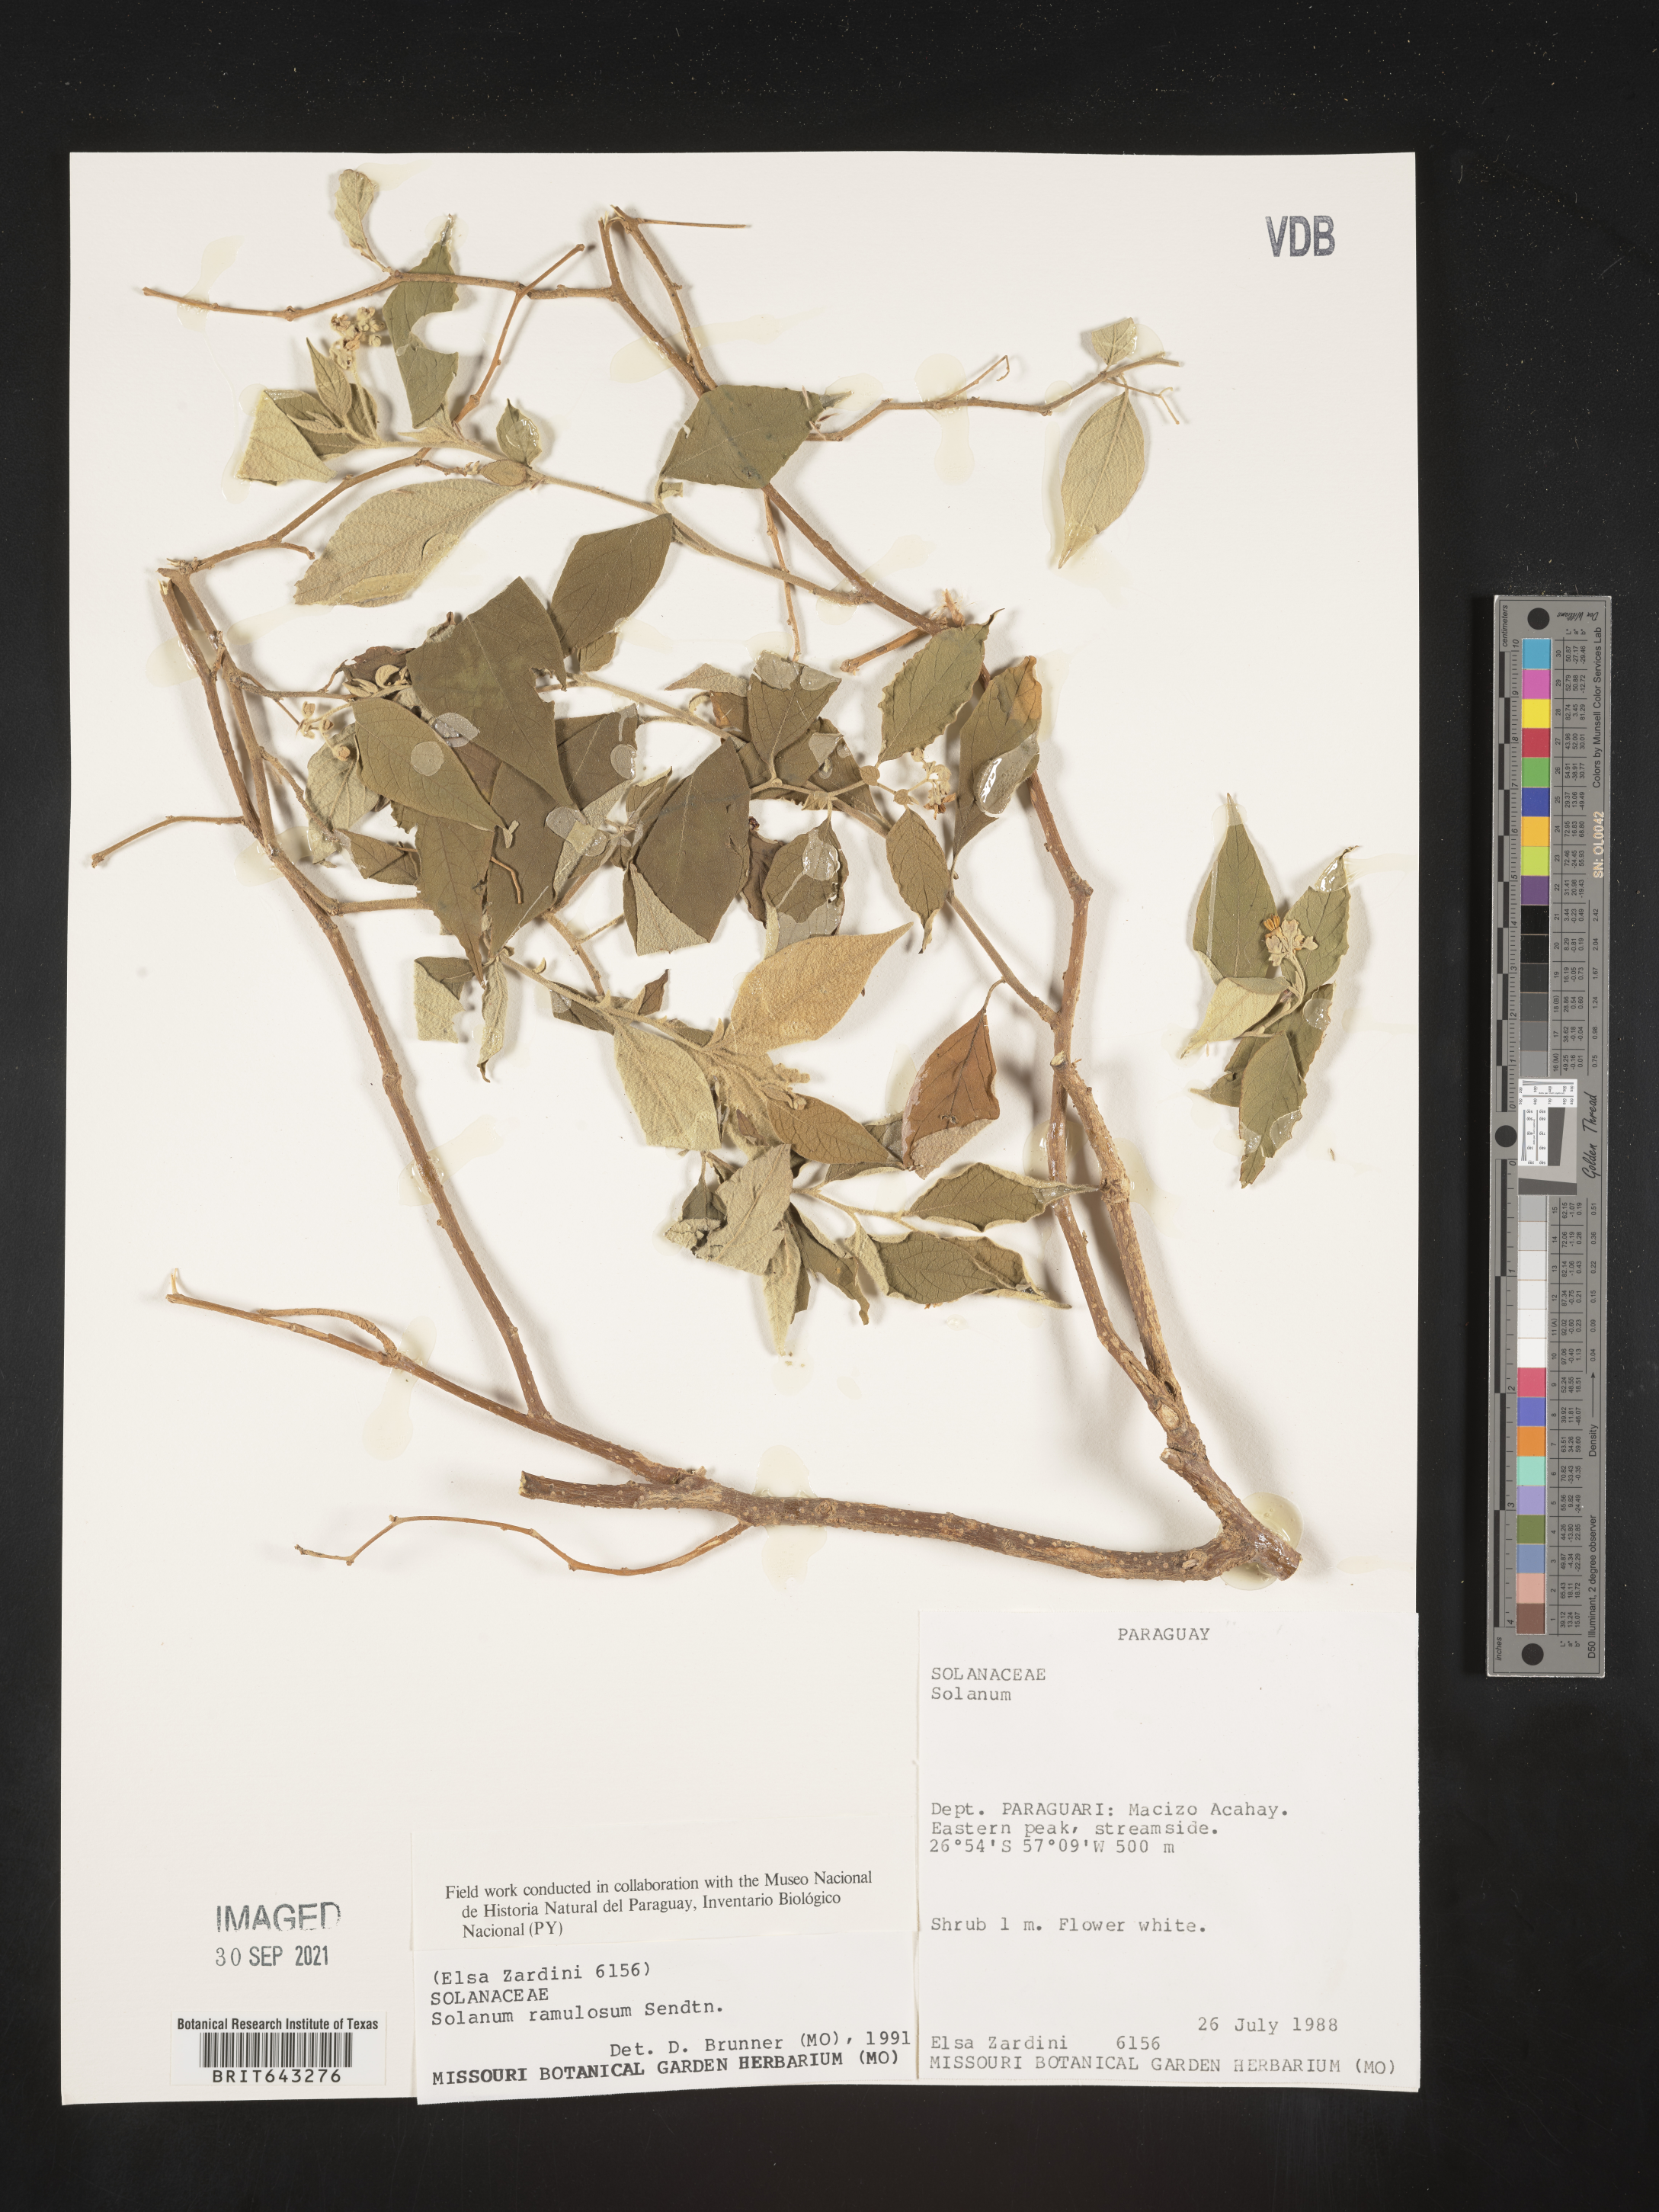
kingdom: Plantae
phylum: Tracheophyta
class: Magnoliopsida
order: Solanales
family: Solanaceae
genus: Solanum
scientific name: Solanum
